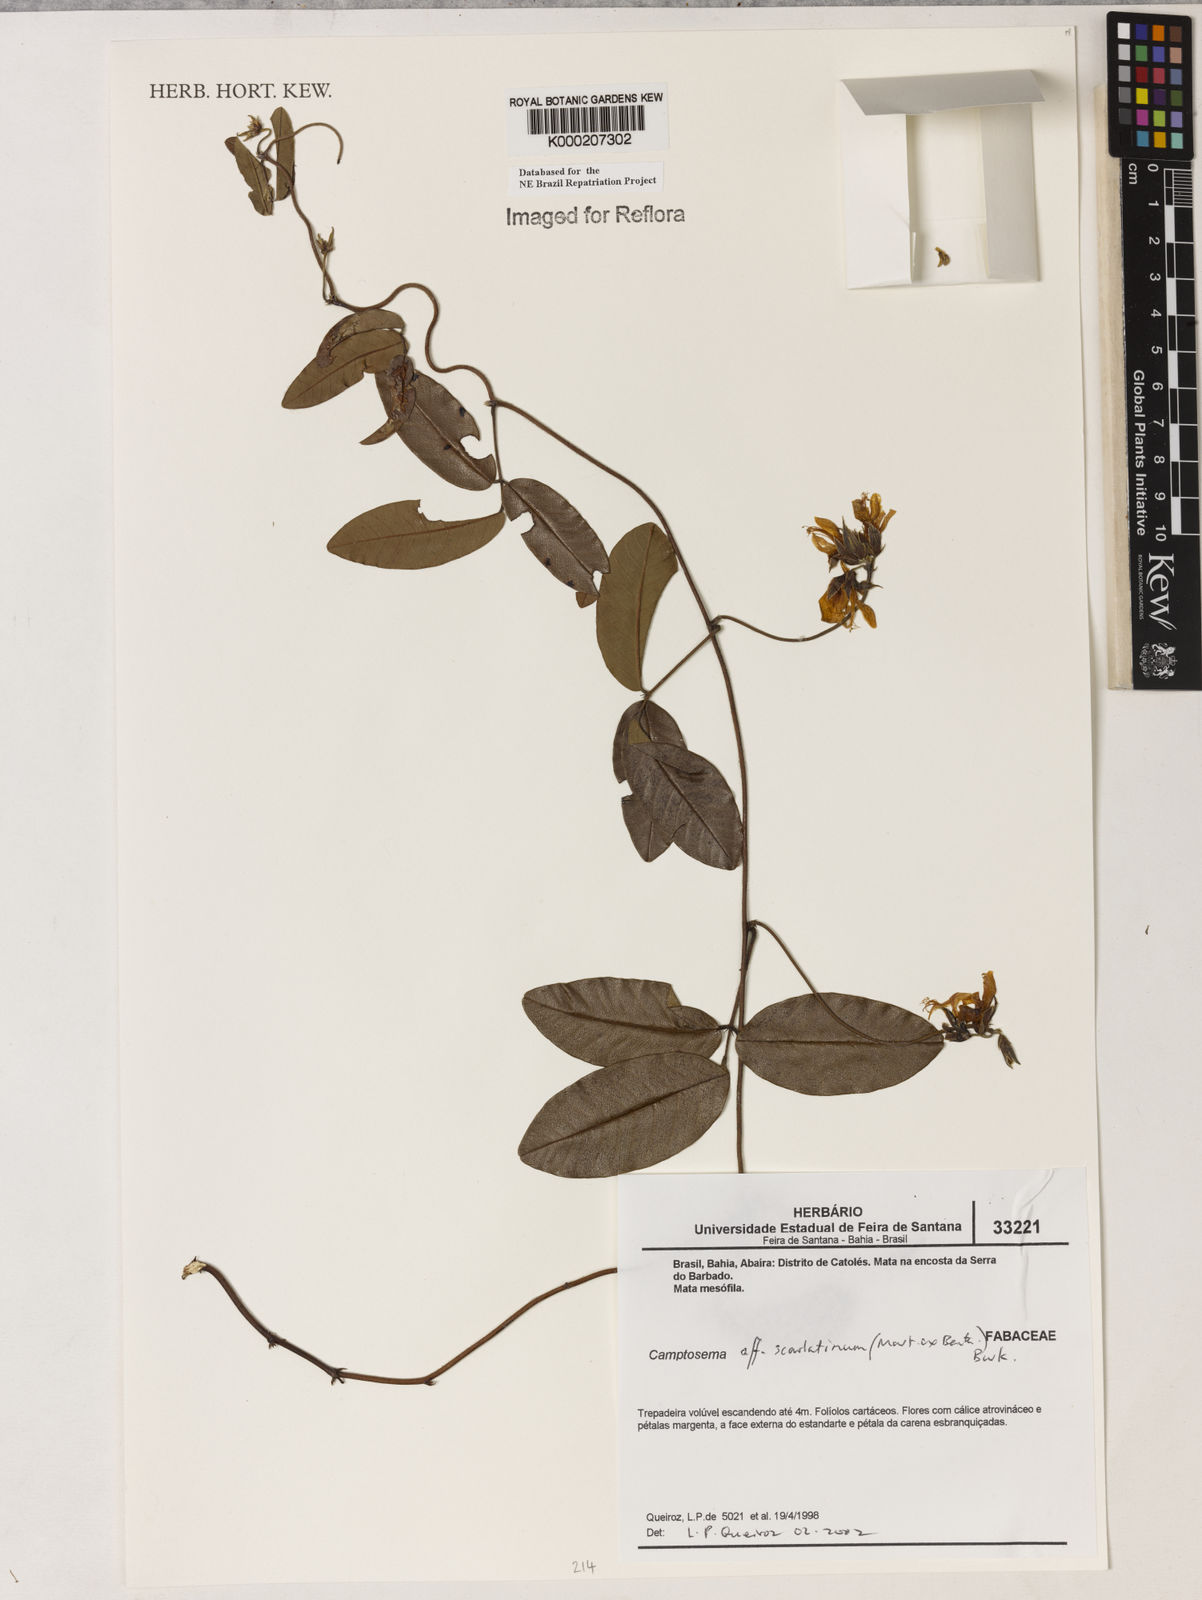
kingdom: Plantae
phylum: Tracheophyta
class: Magnoliopsida
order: Fabales
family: Fabaceae
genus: Betencourtia
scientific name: Betencourtia scarlatina
